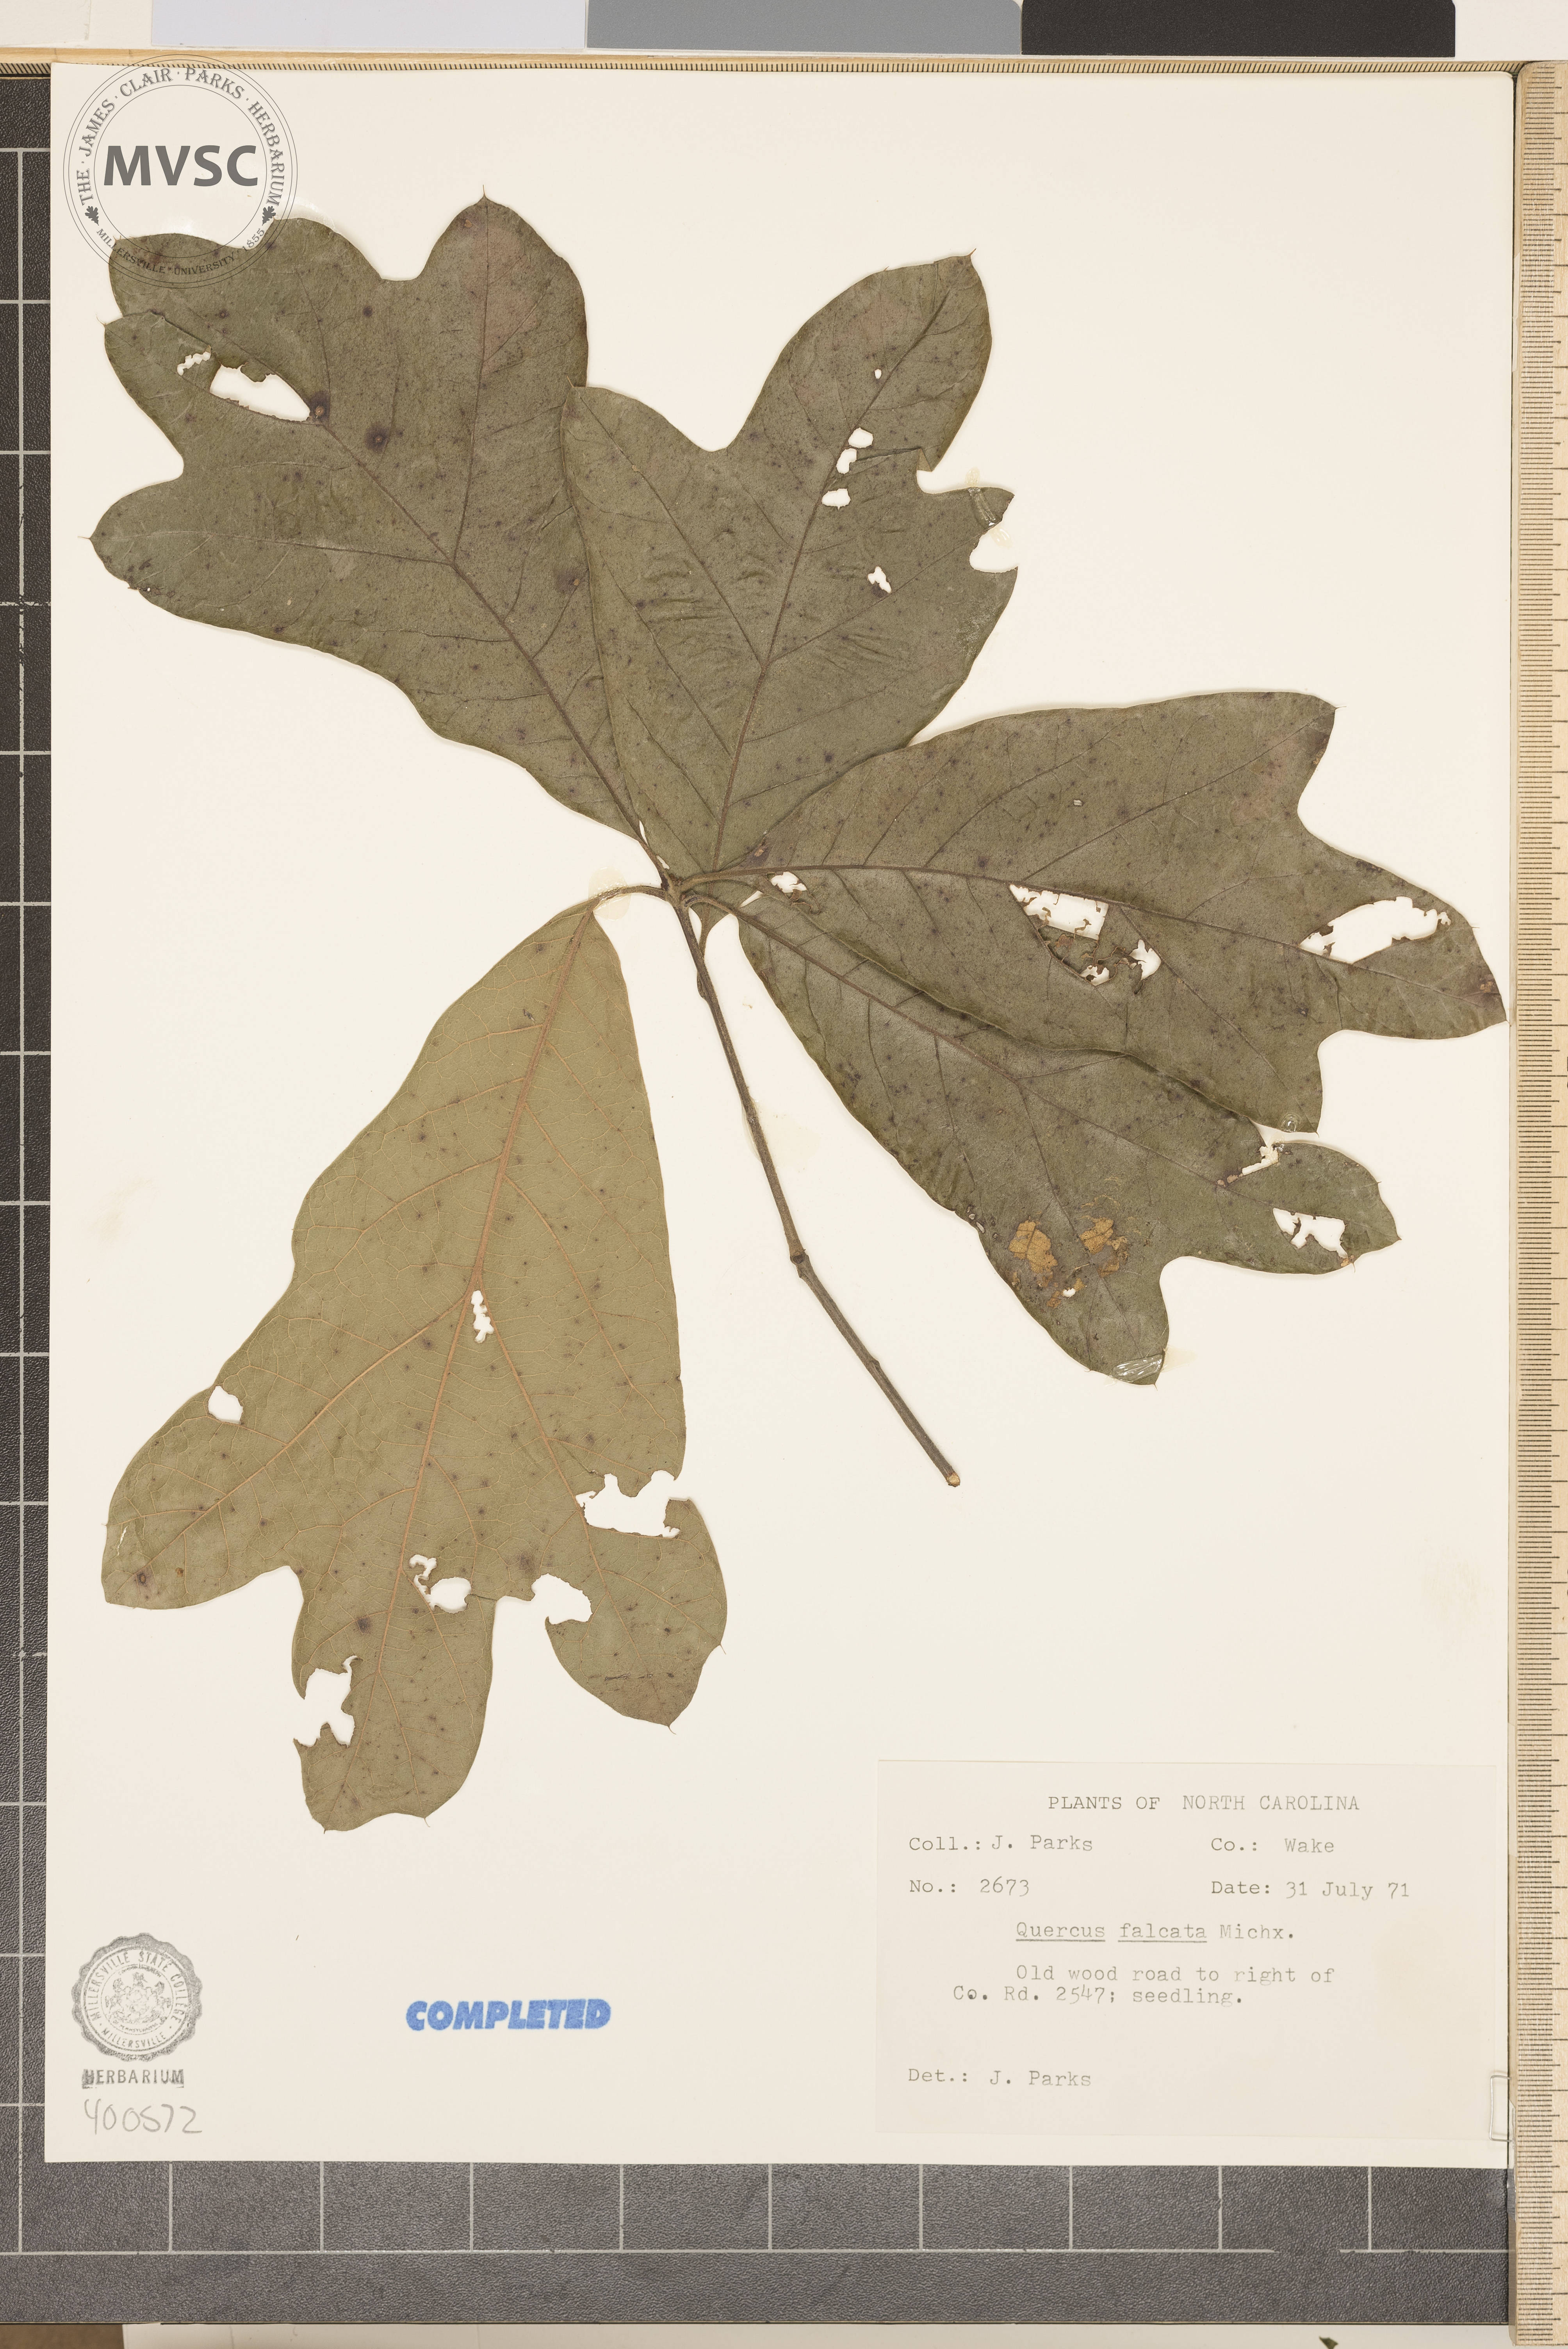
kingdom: Plantae
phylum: Tracheophyta
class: Magnoliopsida
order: Fagales
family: Fagaceae
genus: Quercus
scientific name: Quercus falcata
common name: southern red oak
